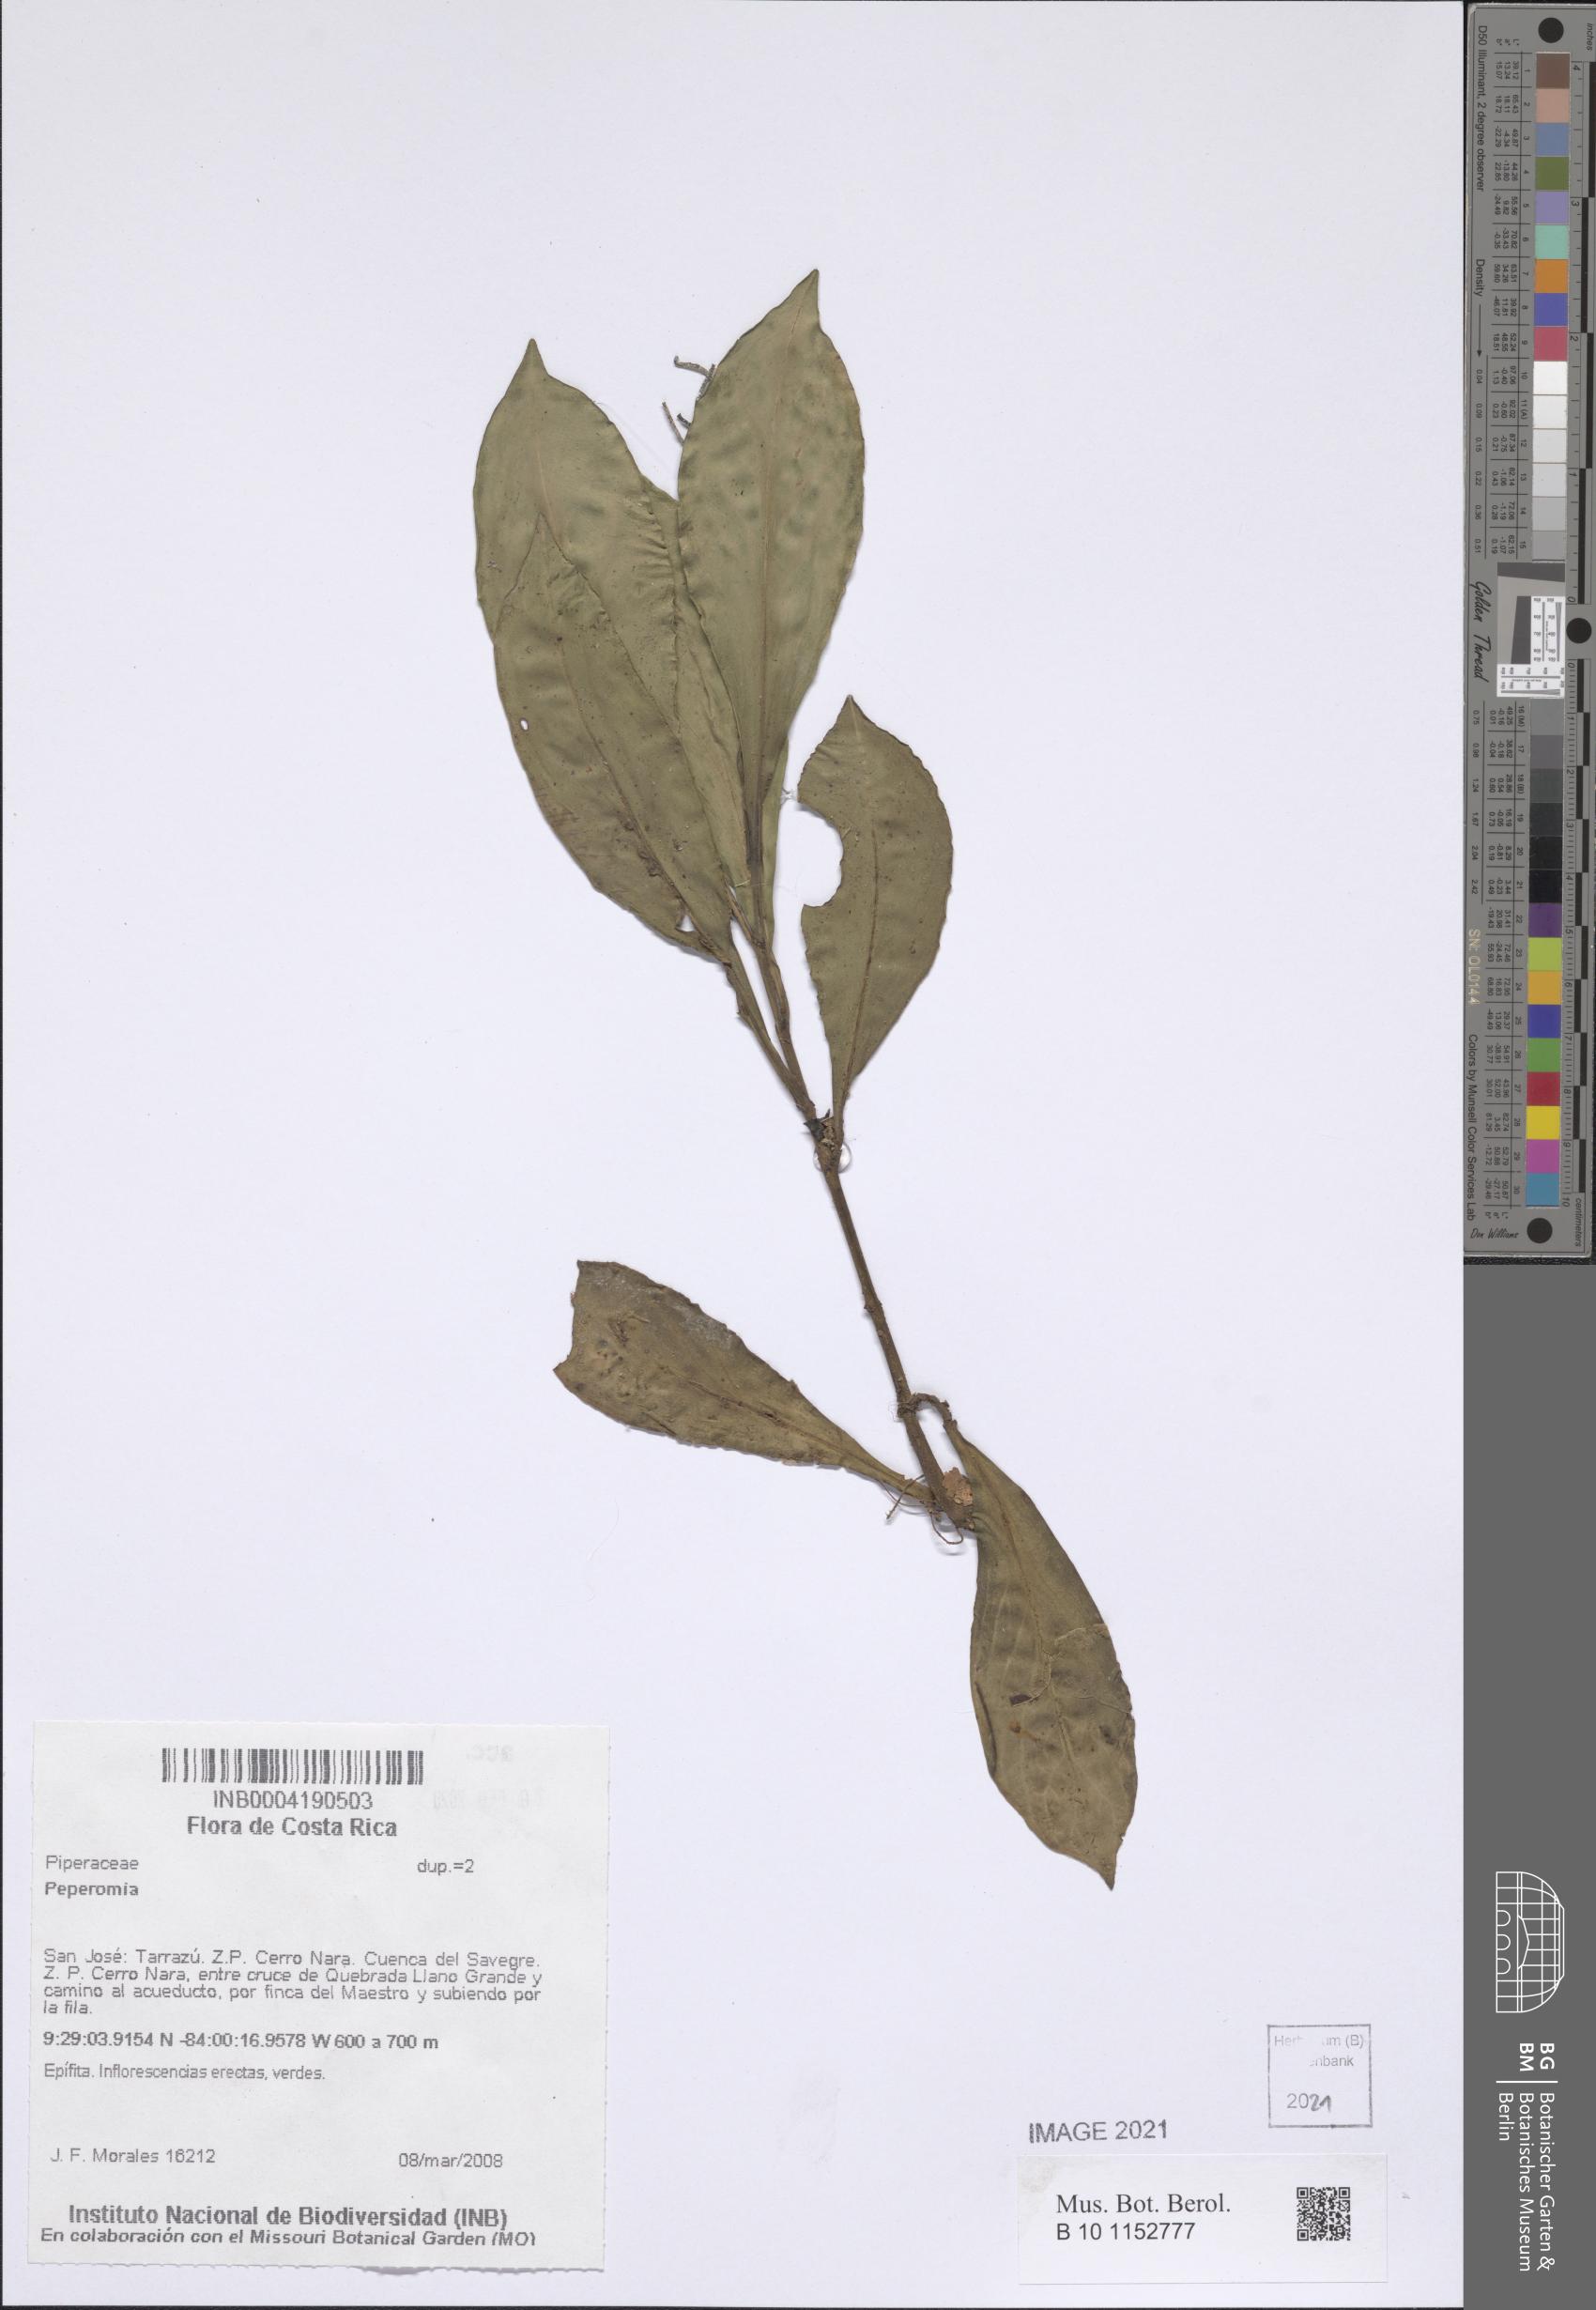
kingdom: Plantae
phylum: Tracheophyta
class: Magnoliopsida
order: Piperales
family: Piperaceae
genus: Peperomia
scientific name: Peperomia
